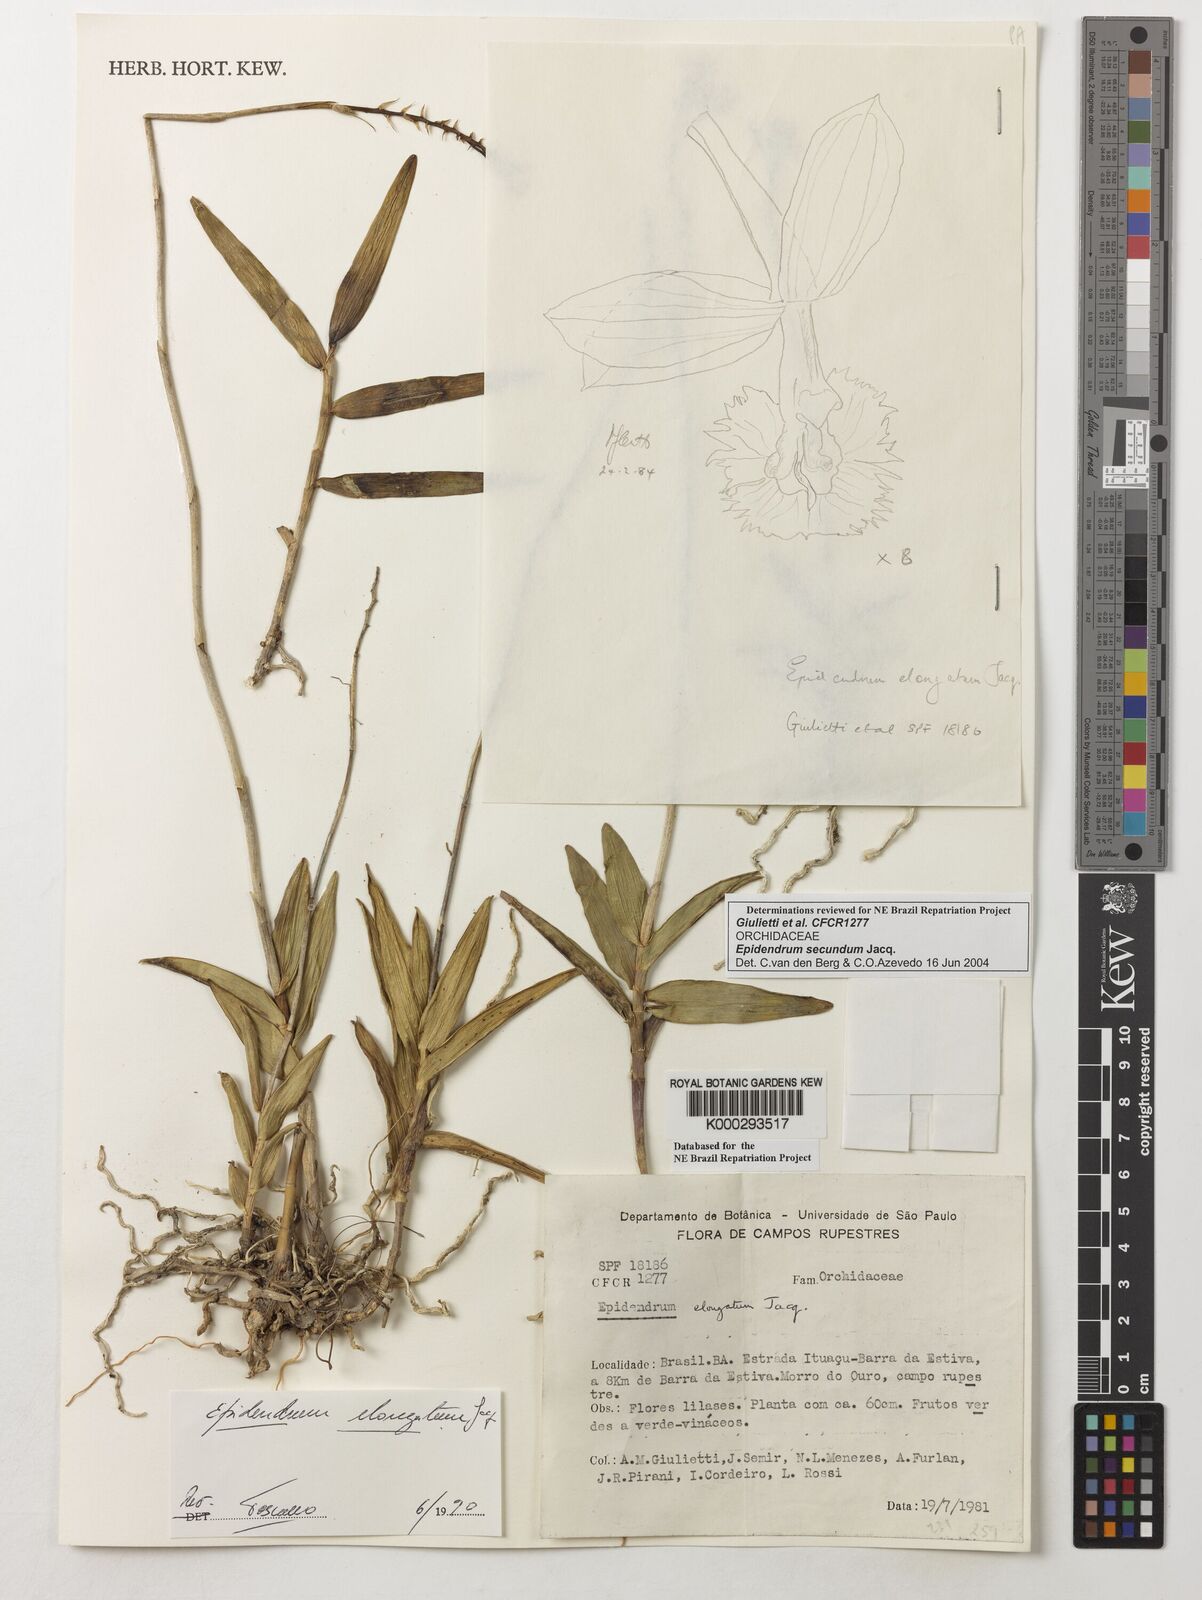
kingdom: Plantae
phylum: Tracheophyta
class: Liliopsida
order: Asparagales
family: Orchidaceae
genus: Epidendrum
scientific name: Epidendrum secundum
